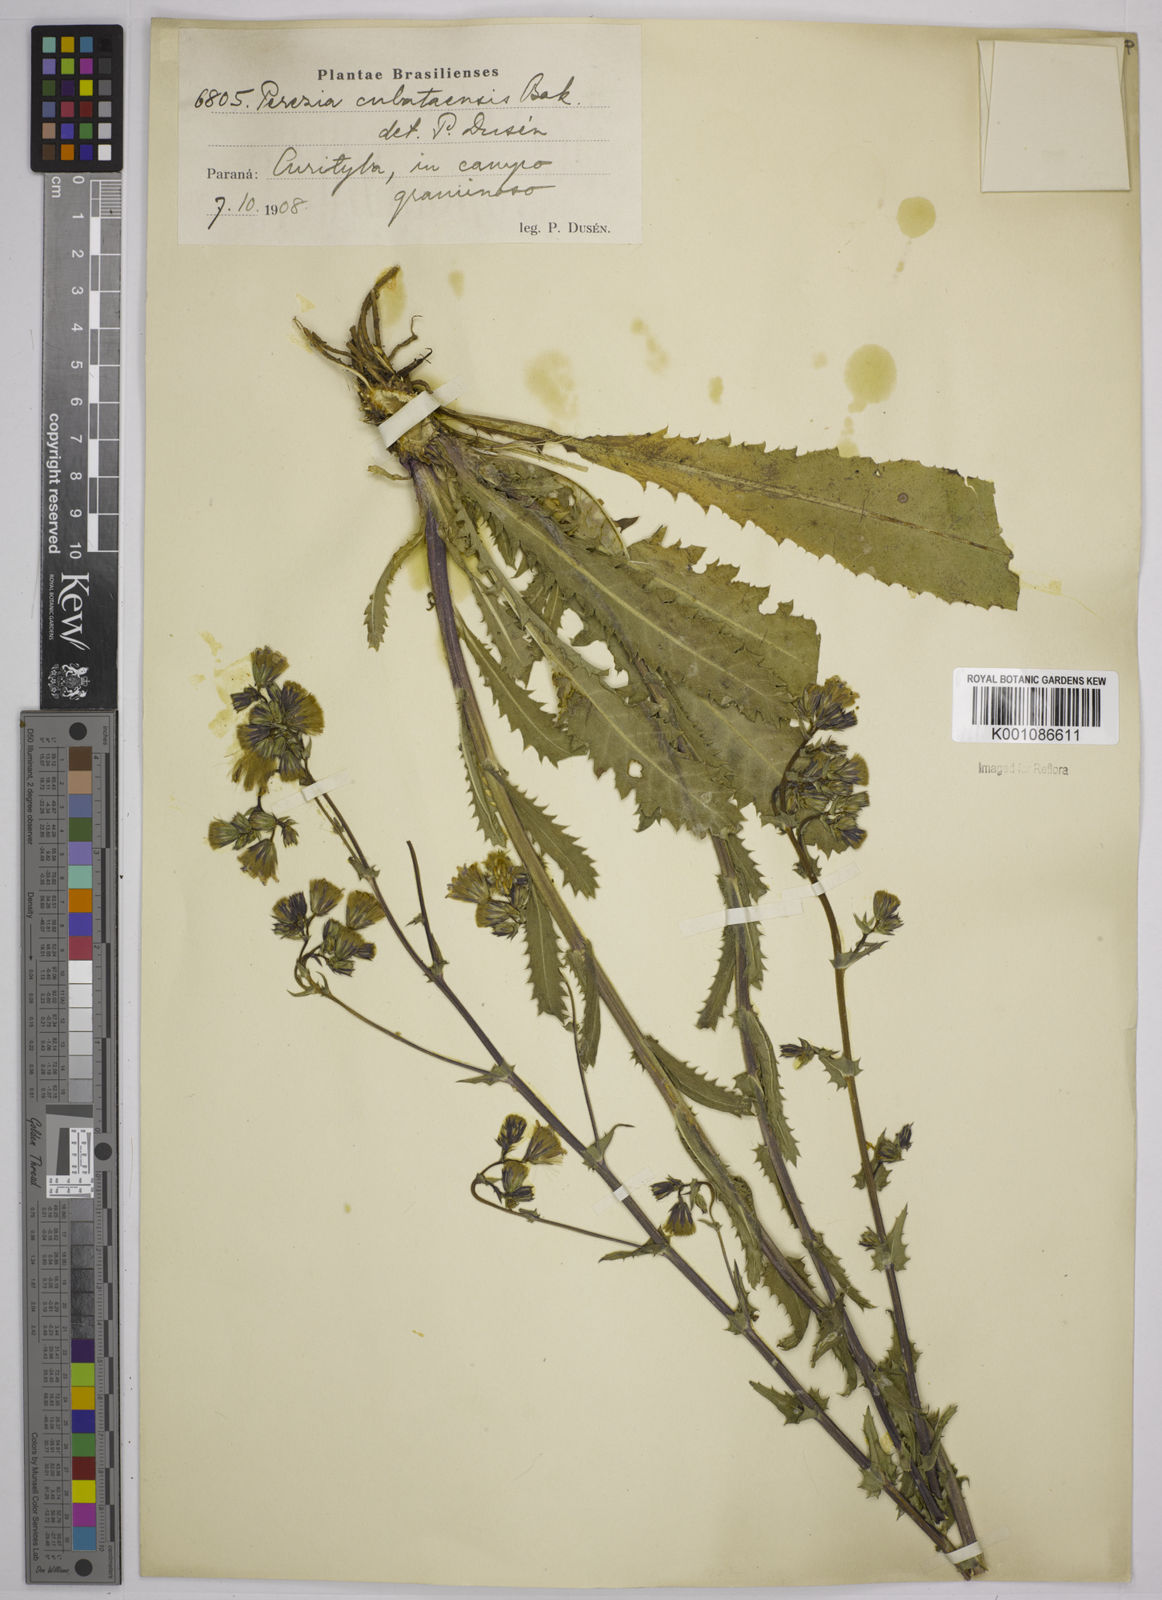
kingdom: Plantae
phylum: Tracheophyta
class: Magnoliopsida
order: Asterales
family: Asteraceae
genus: Perezia
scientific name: Perezia squarrosa
